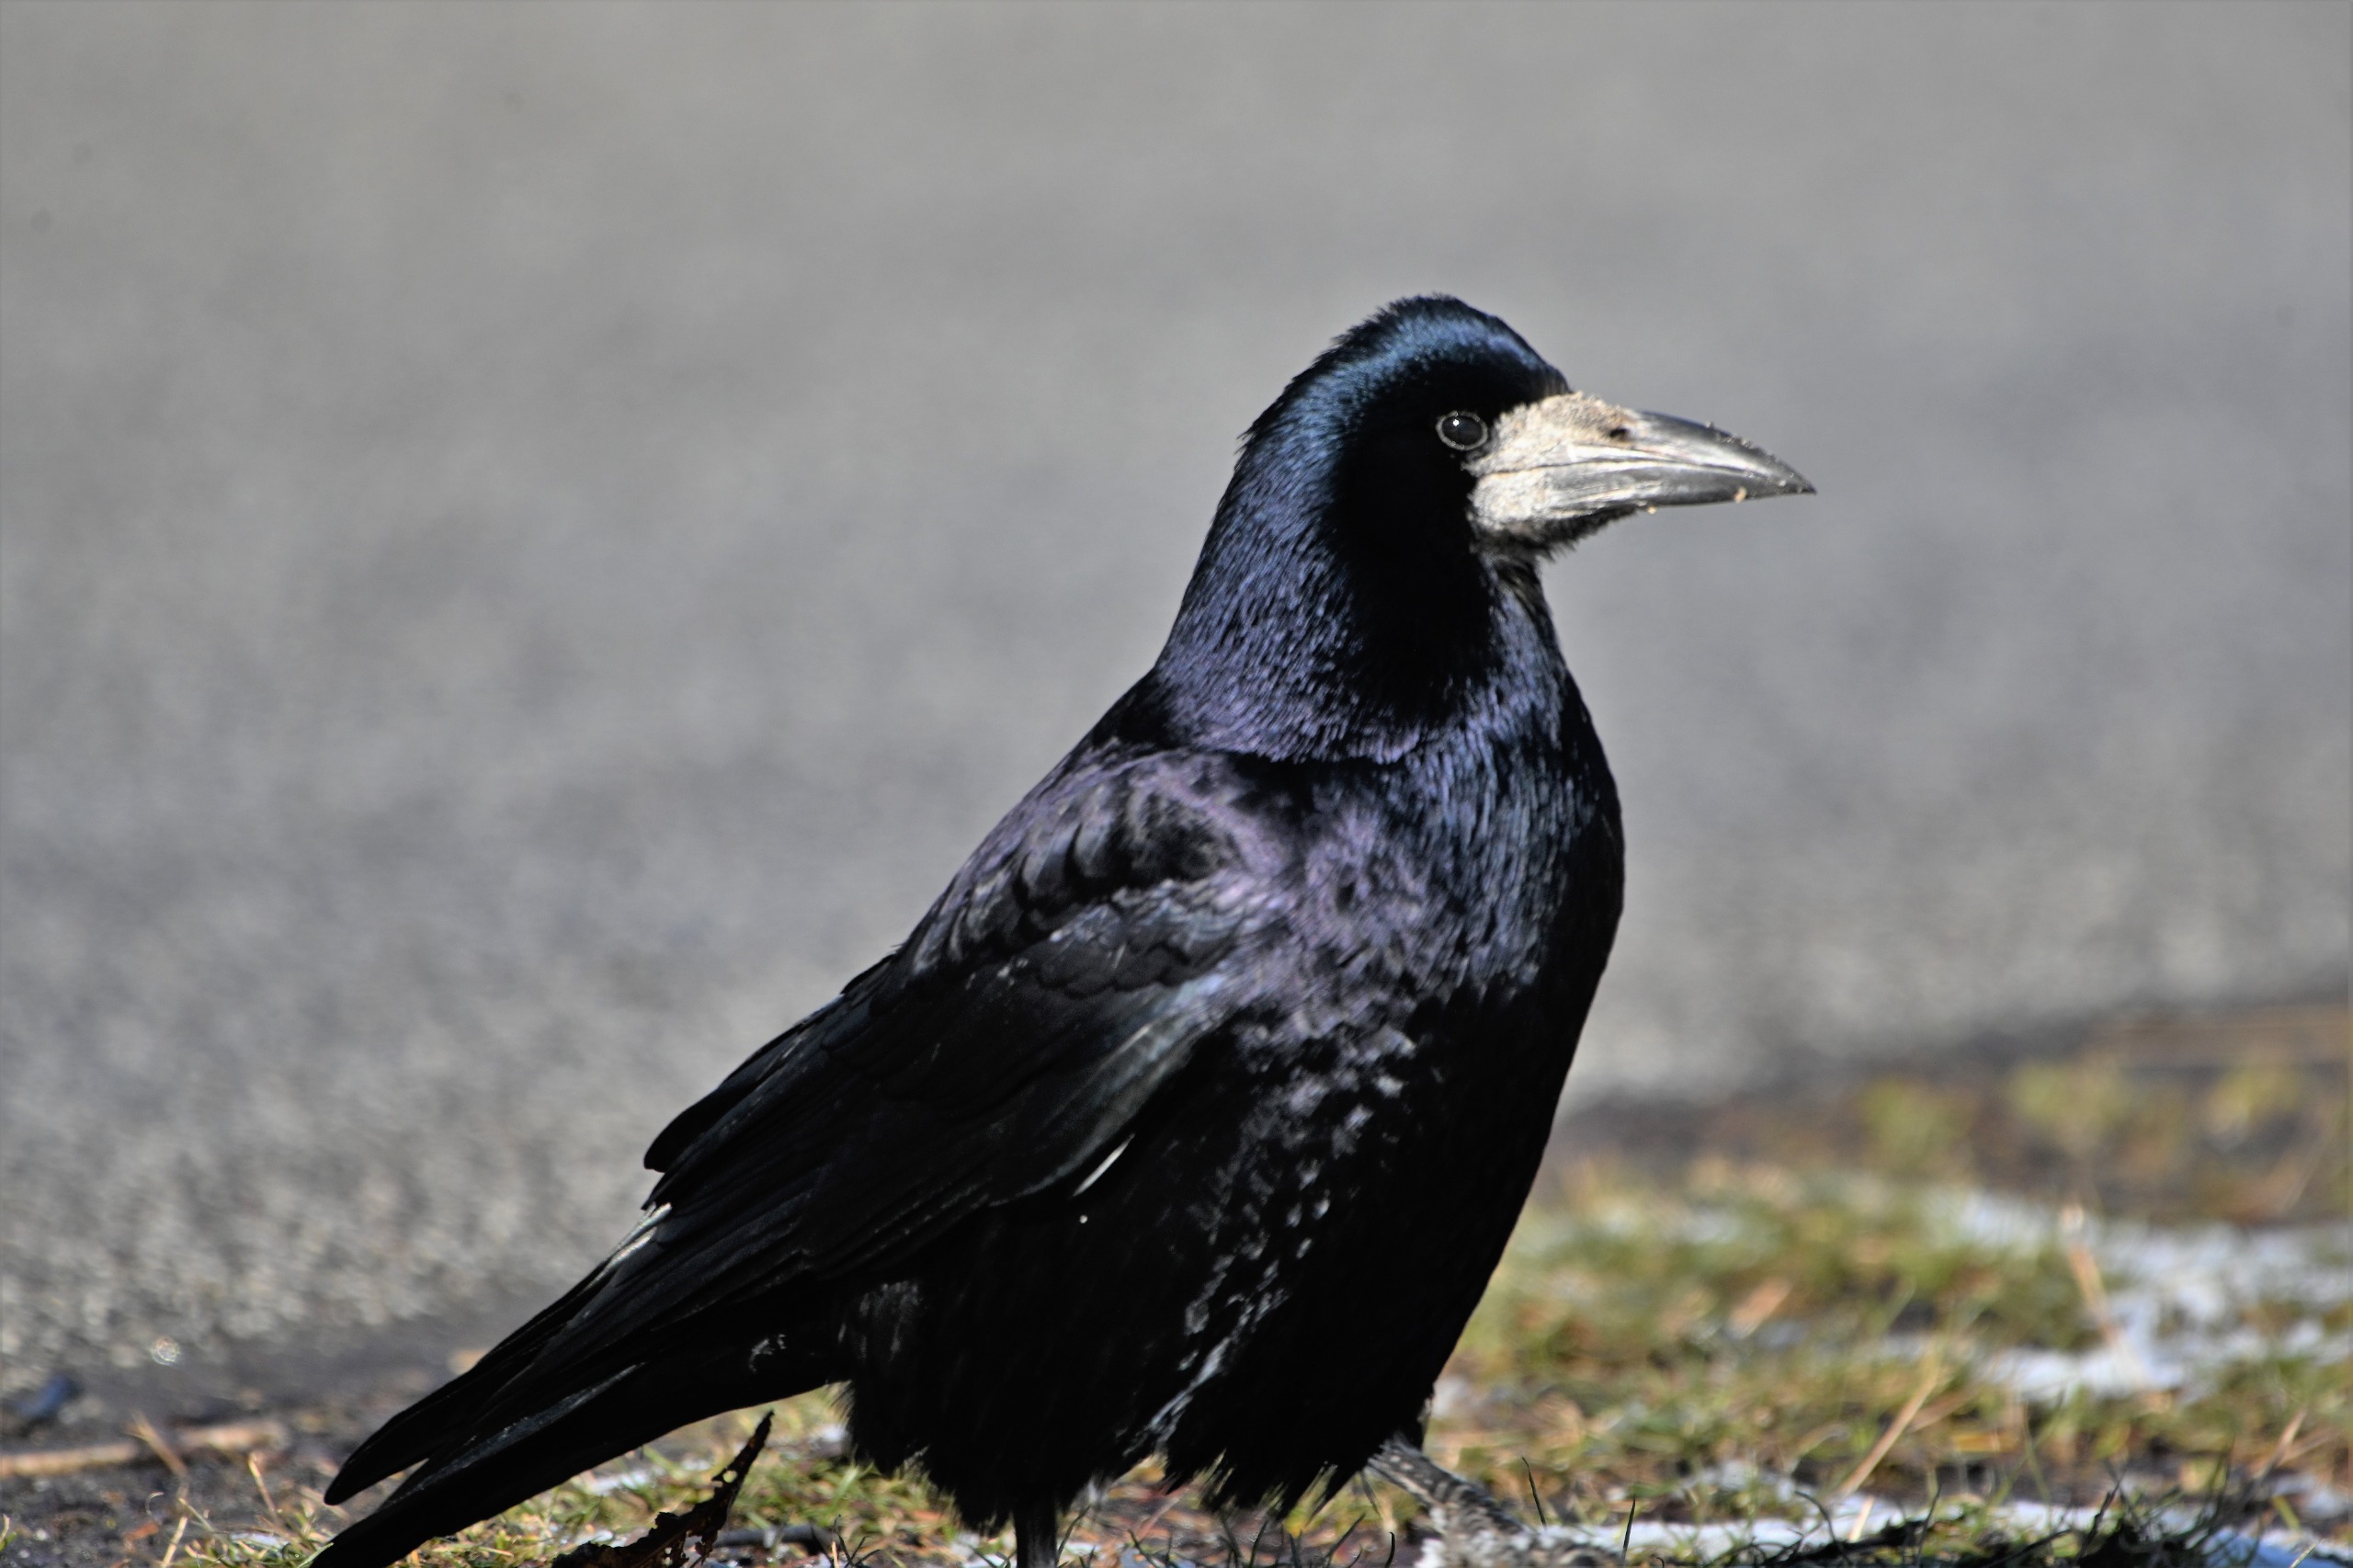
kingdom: Animalia
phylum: Chordata
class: Aves
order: Passeriformes
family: Corvidae
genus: Corvus
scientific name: Corvus frugilegus
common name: Råge
